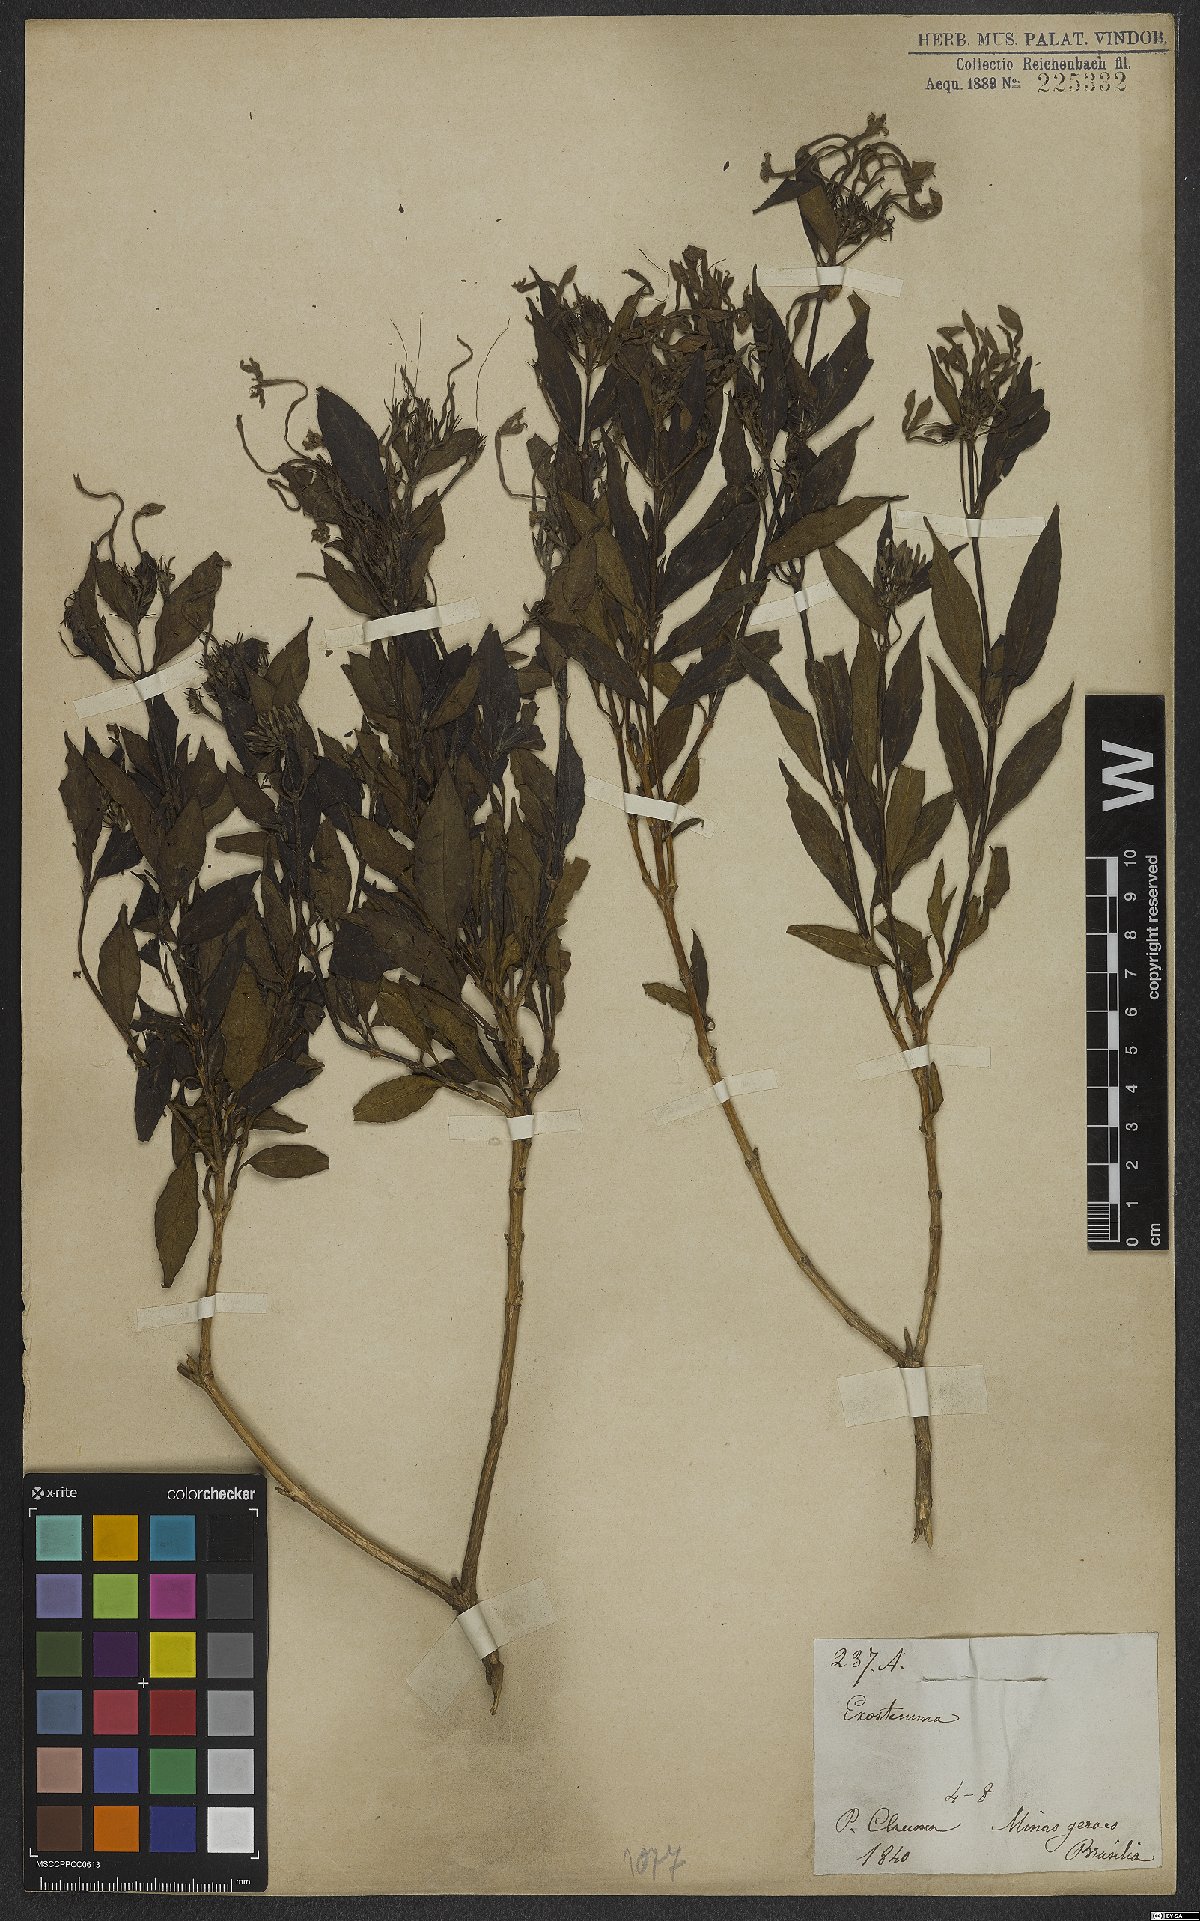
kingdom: Plantae
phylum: Tracheophyta
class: Magnoliopsida
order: Gentianales
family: Rubiaceae
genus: Exostema
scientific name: Exostema
